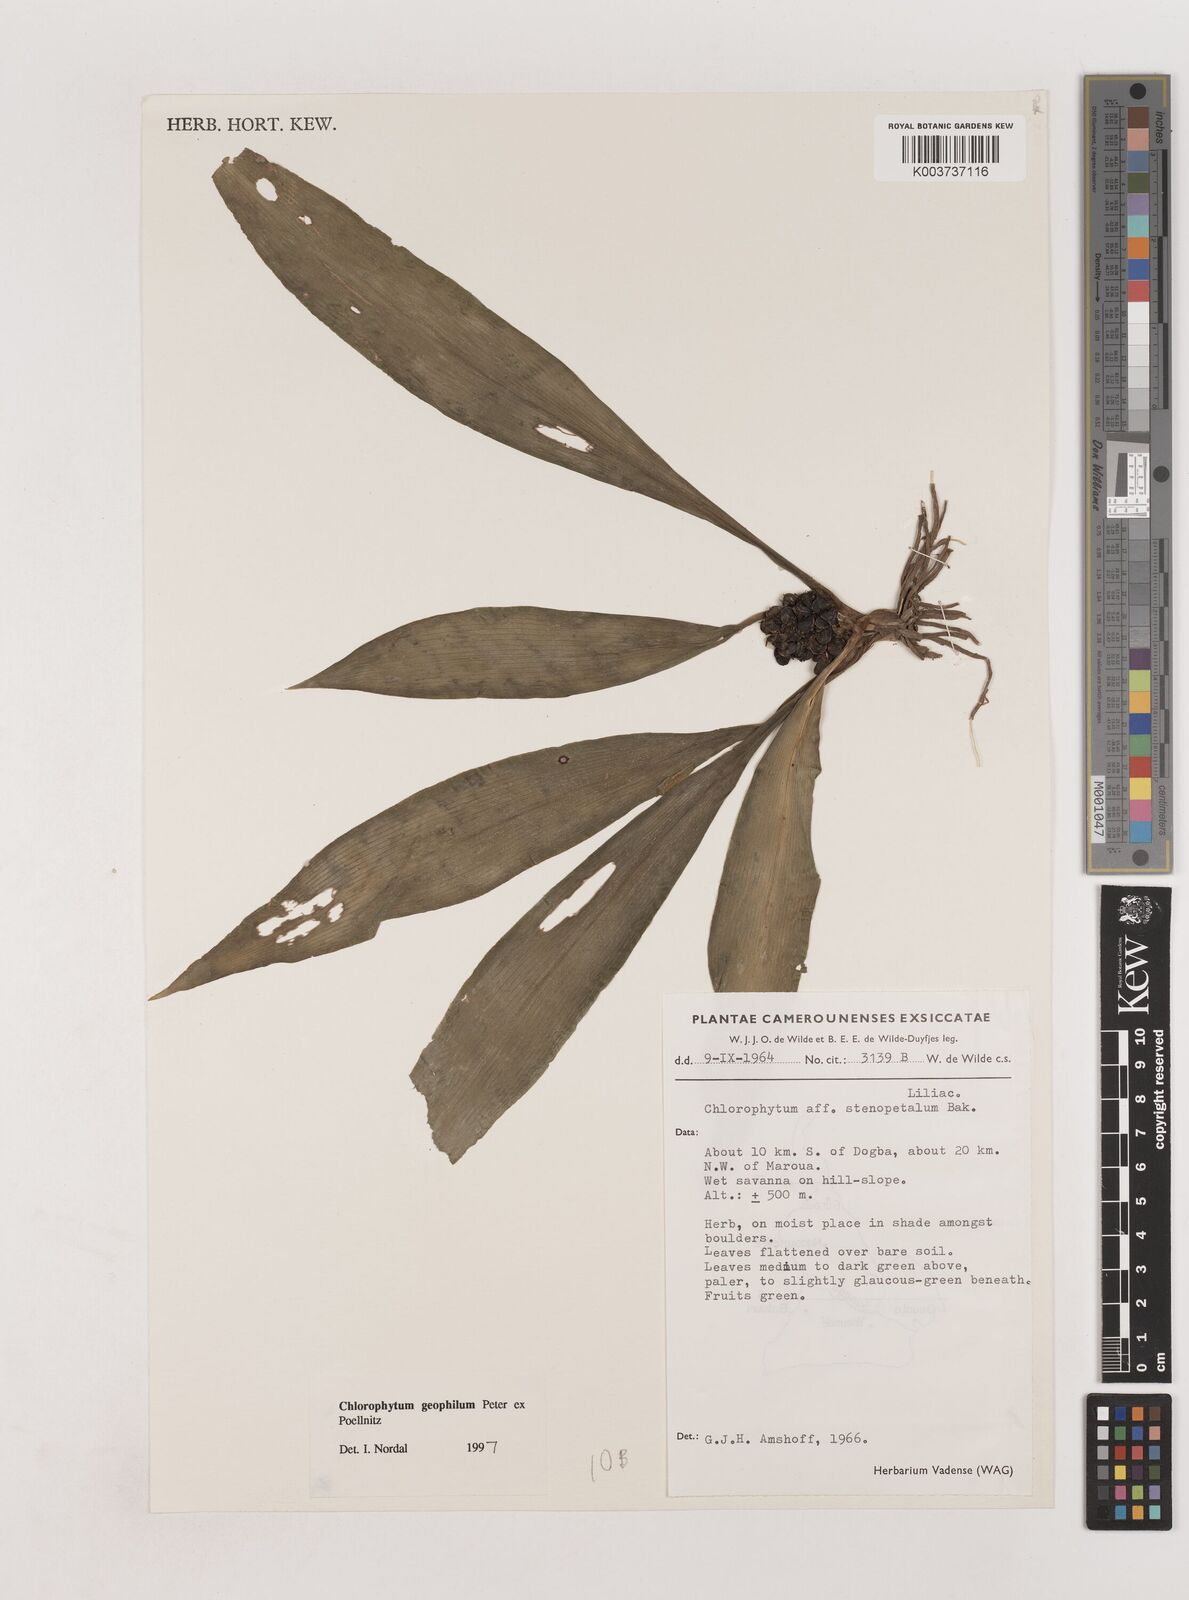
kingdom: Plantae
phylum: Tracheophyta
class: Liliopsida
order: Asparagales
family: Asparagaceae
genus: Chlorophytum
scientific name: Chlorophytum geophilum
